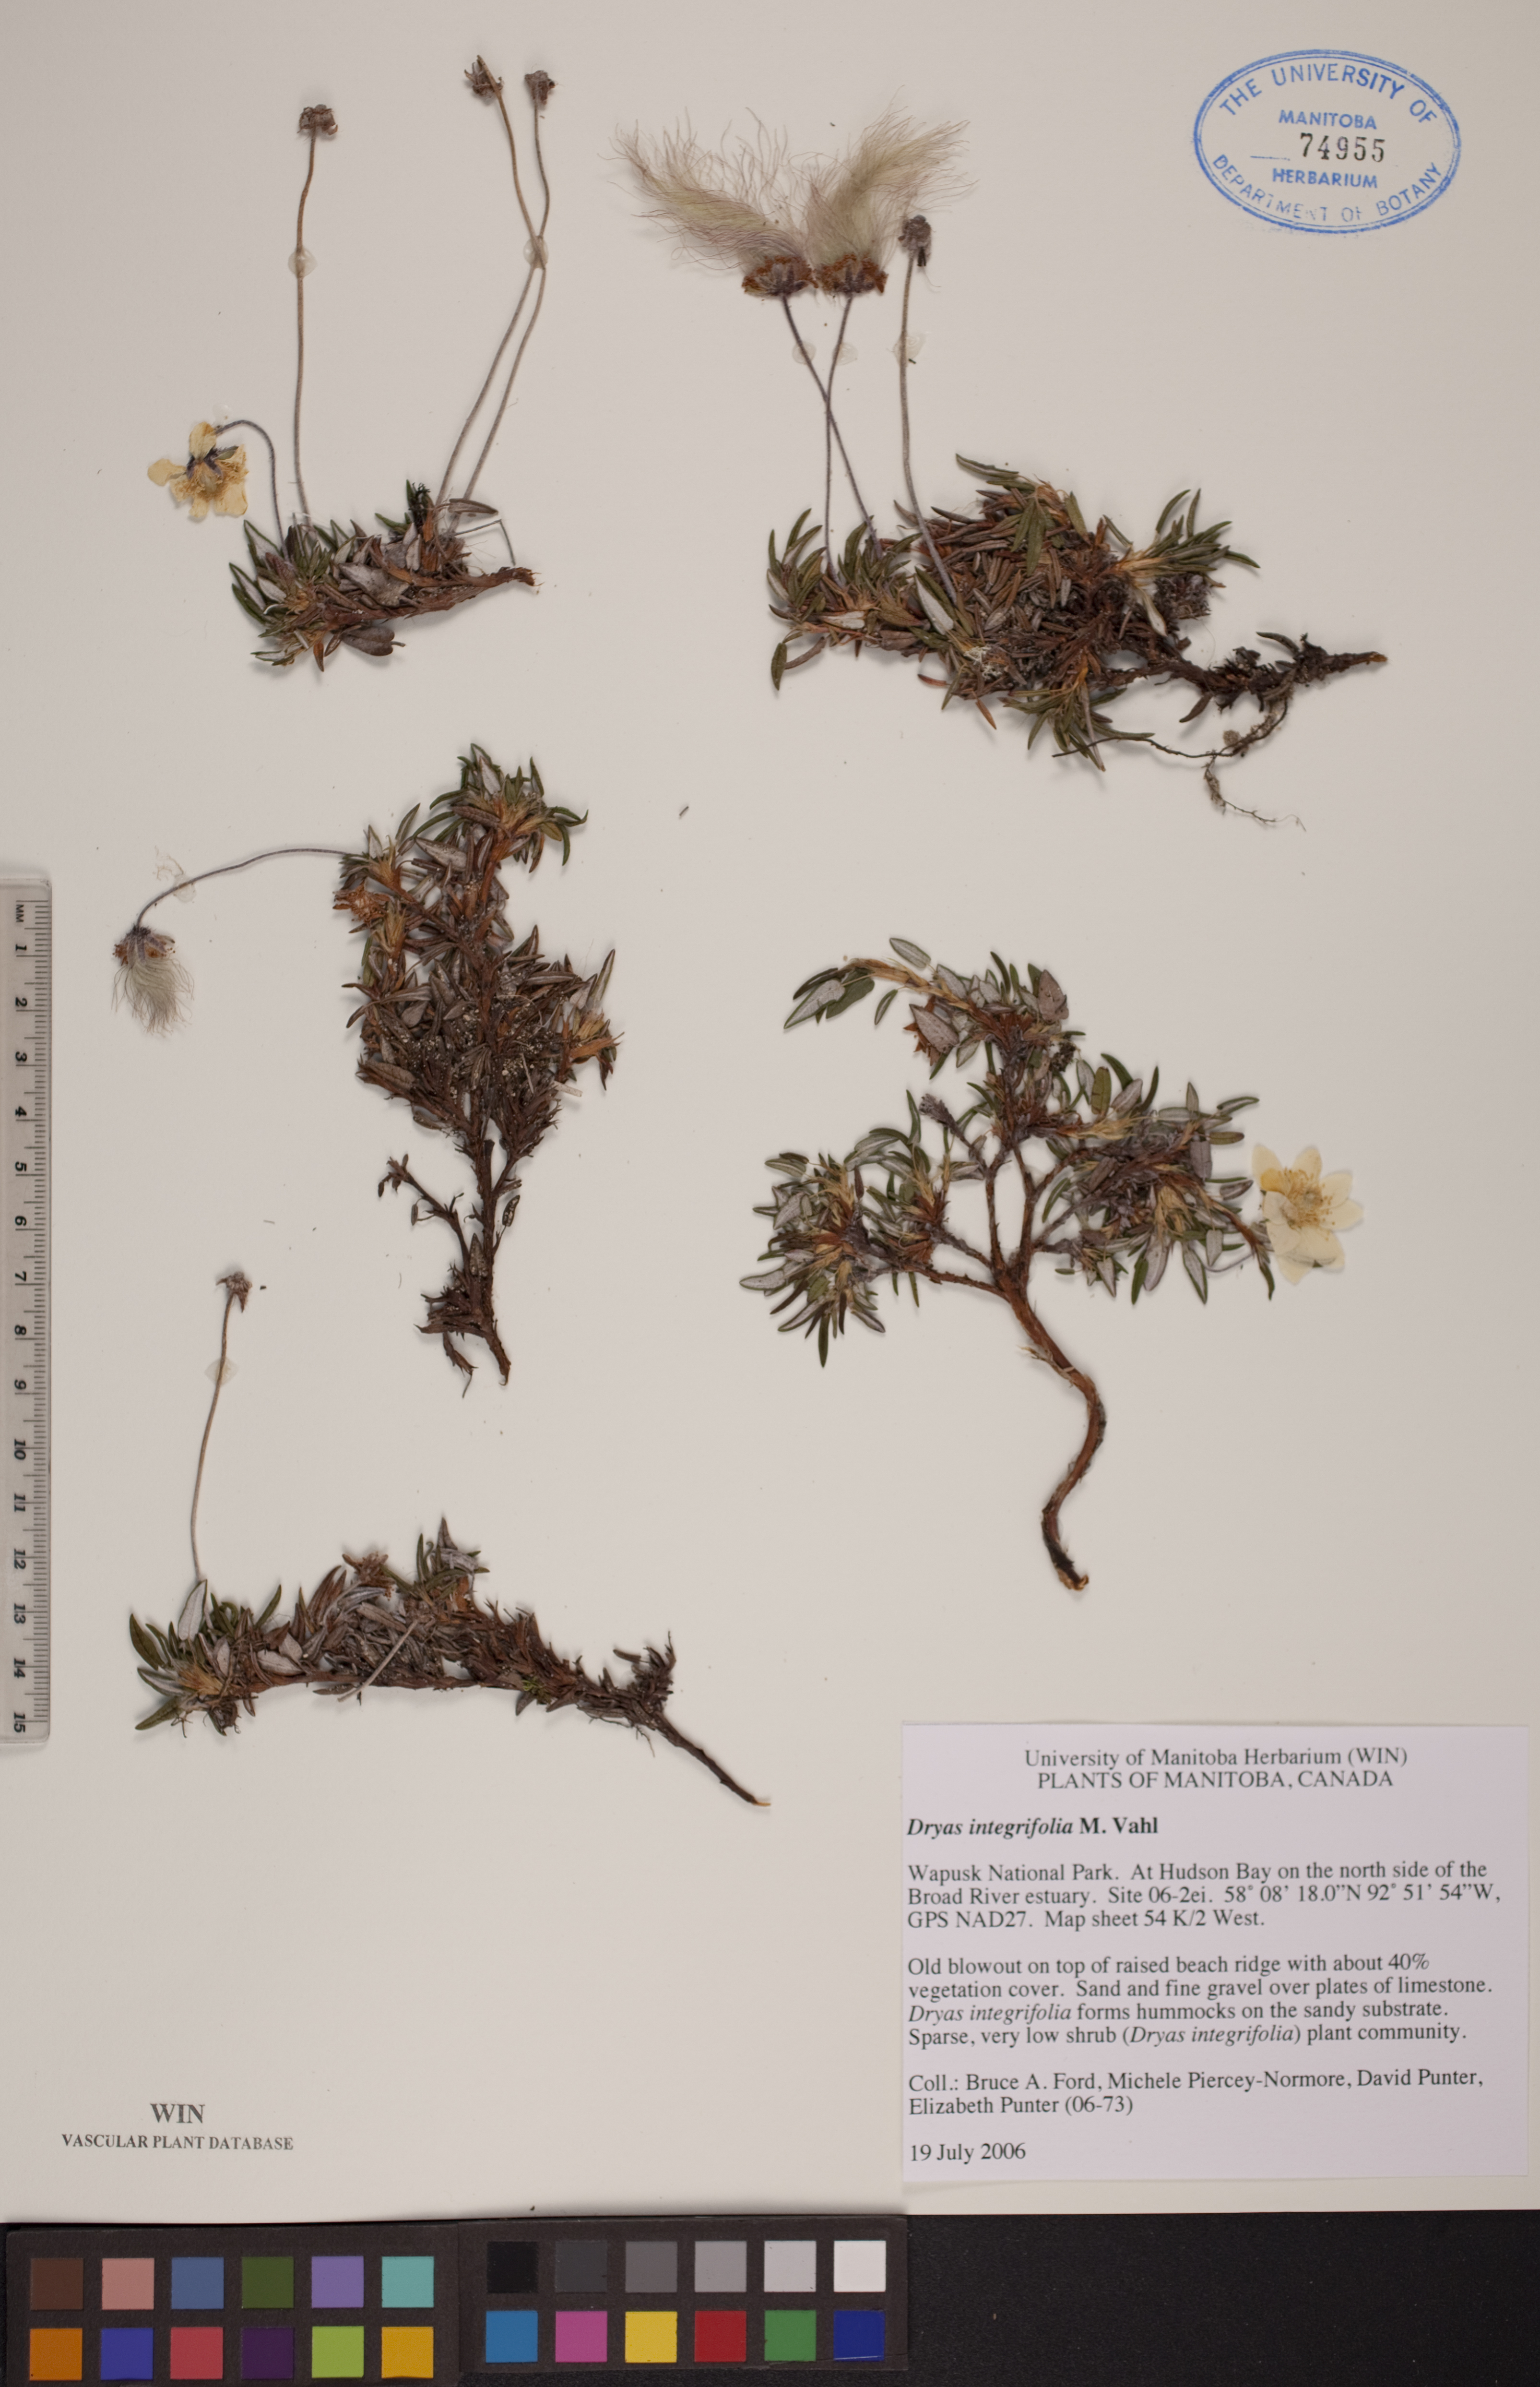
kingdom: Plantae
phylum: Tracheophyta
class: Magnoliopsida
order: Rosales
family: Rosaceae
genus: Dryas
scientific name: Dryas integrifolia
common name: Entire-leaved mountain avens
